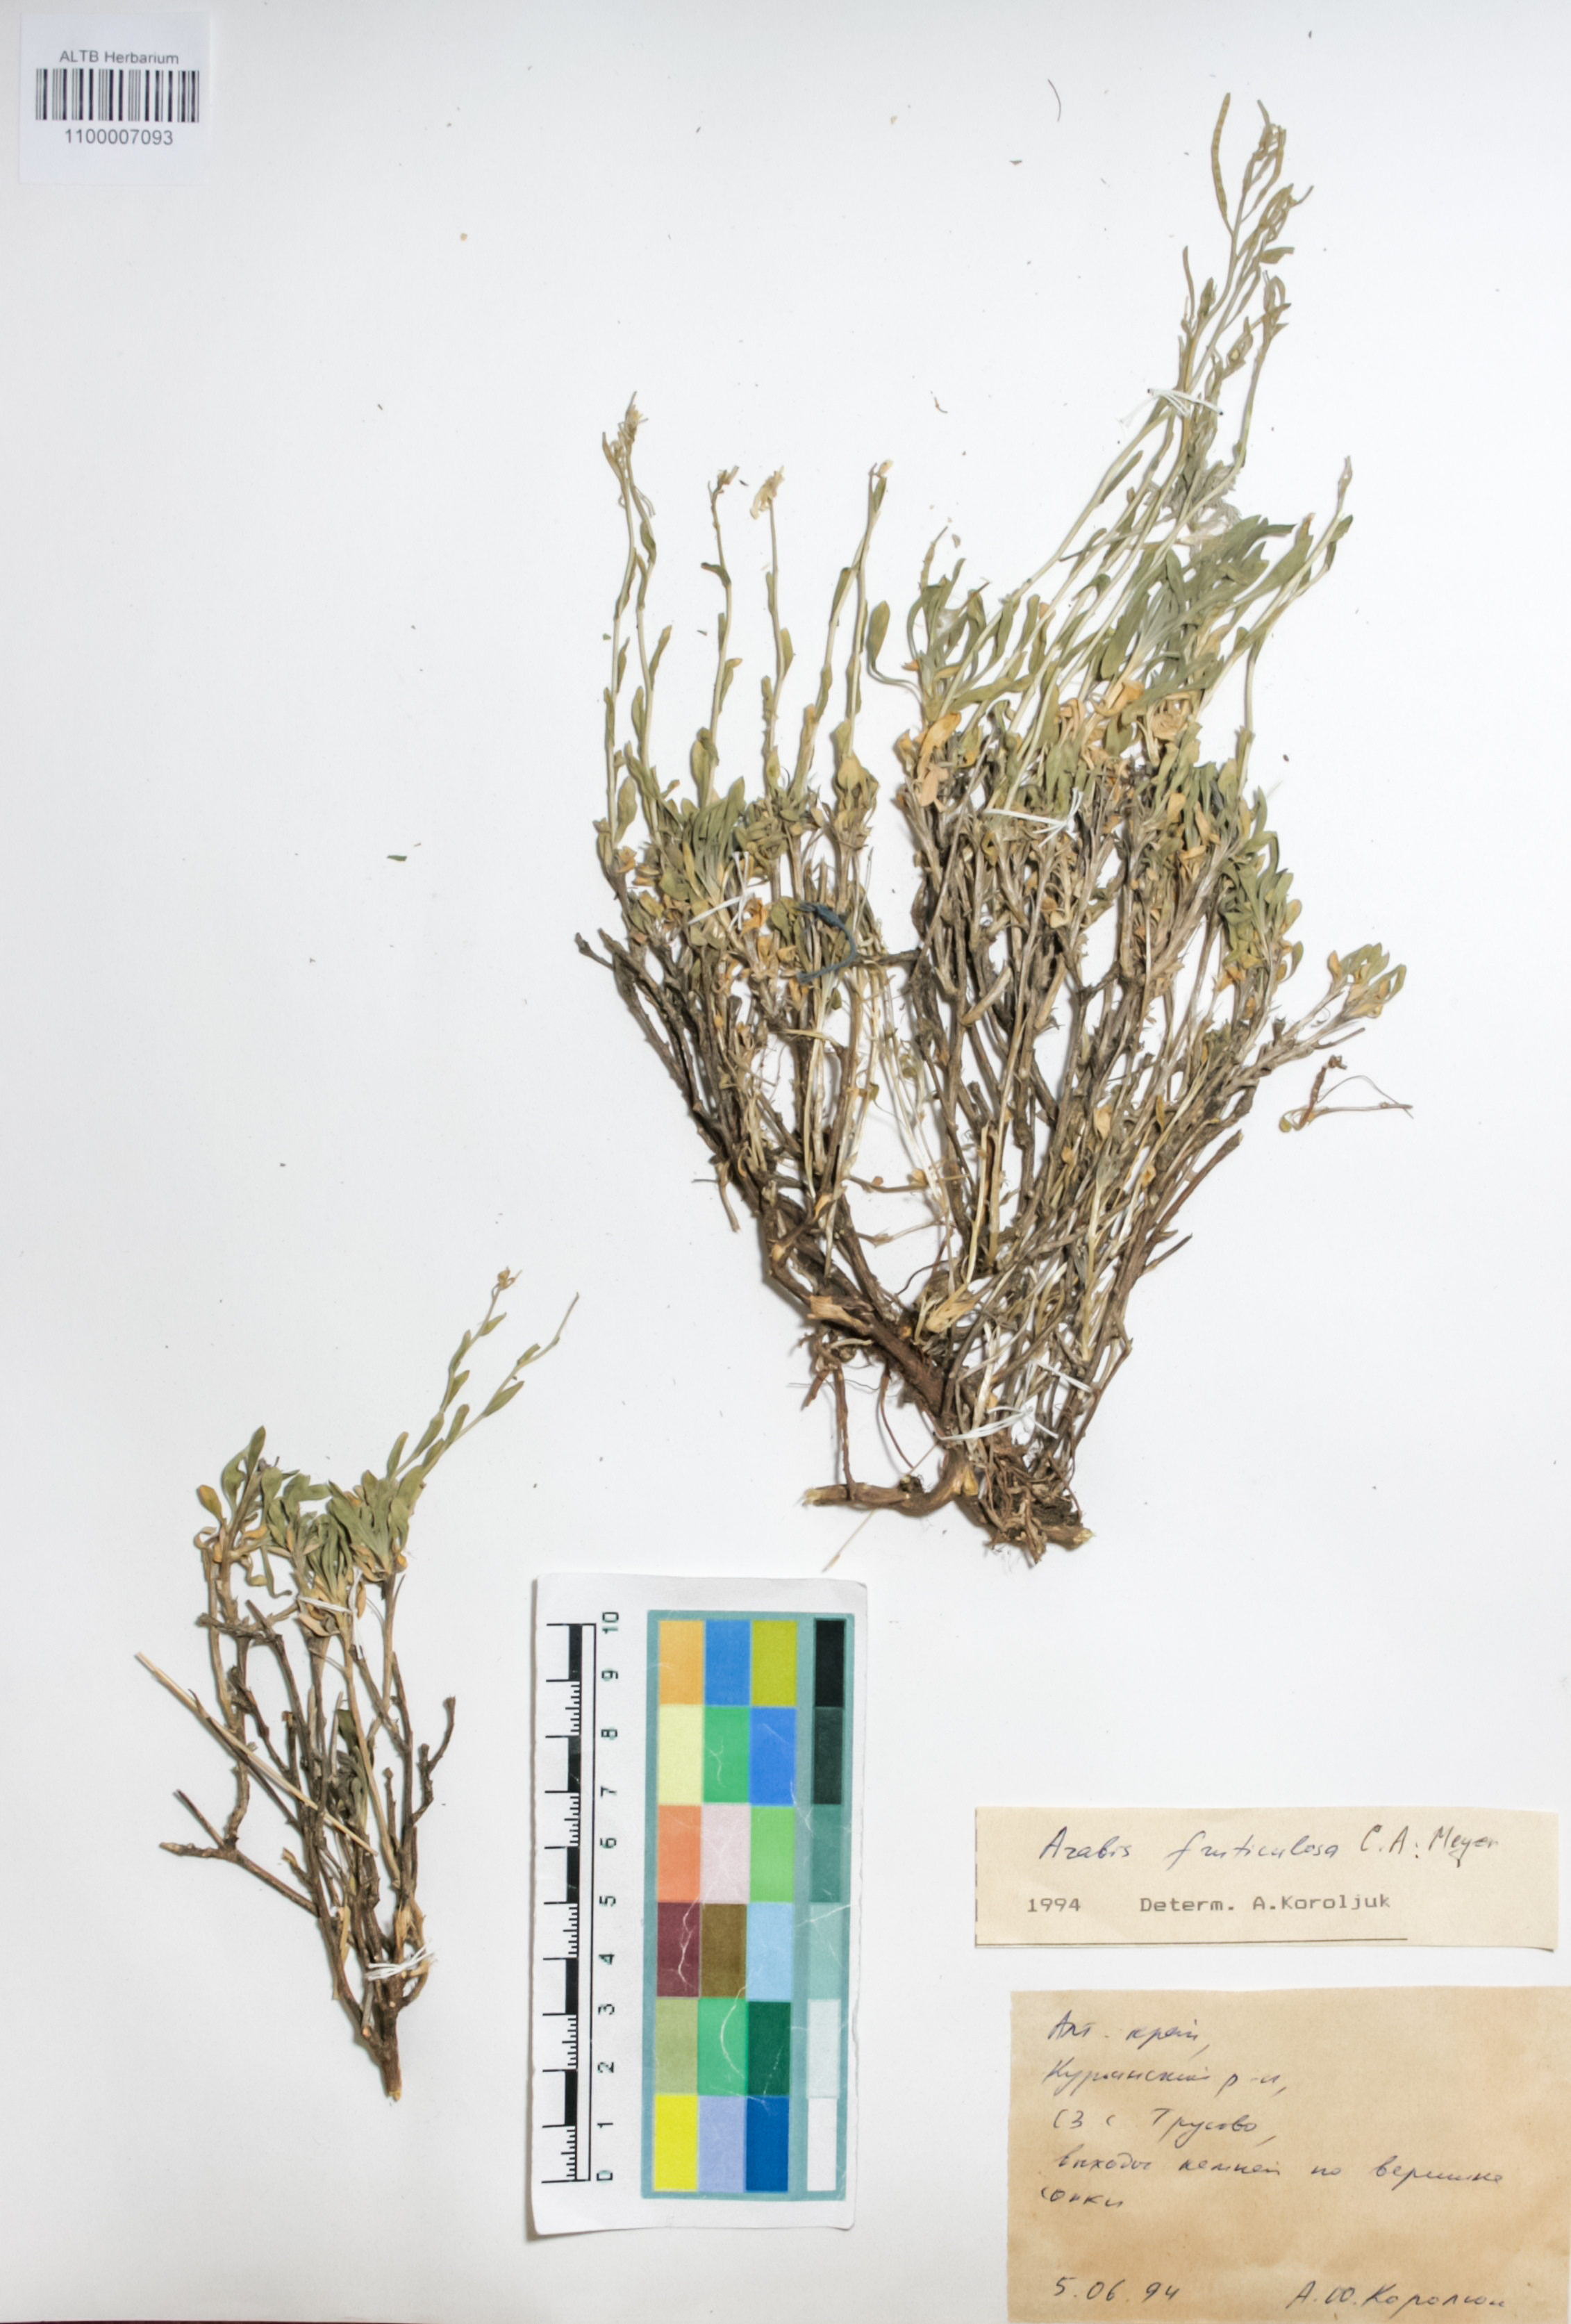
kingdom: Plantae
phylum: Tracheophyta
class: Magnoliopsida
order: Brassicales
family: Brassicaceae
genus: Dendroarabis
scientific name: Dendroarabis fruticulosa
